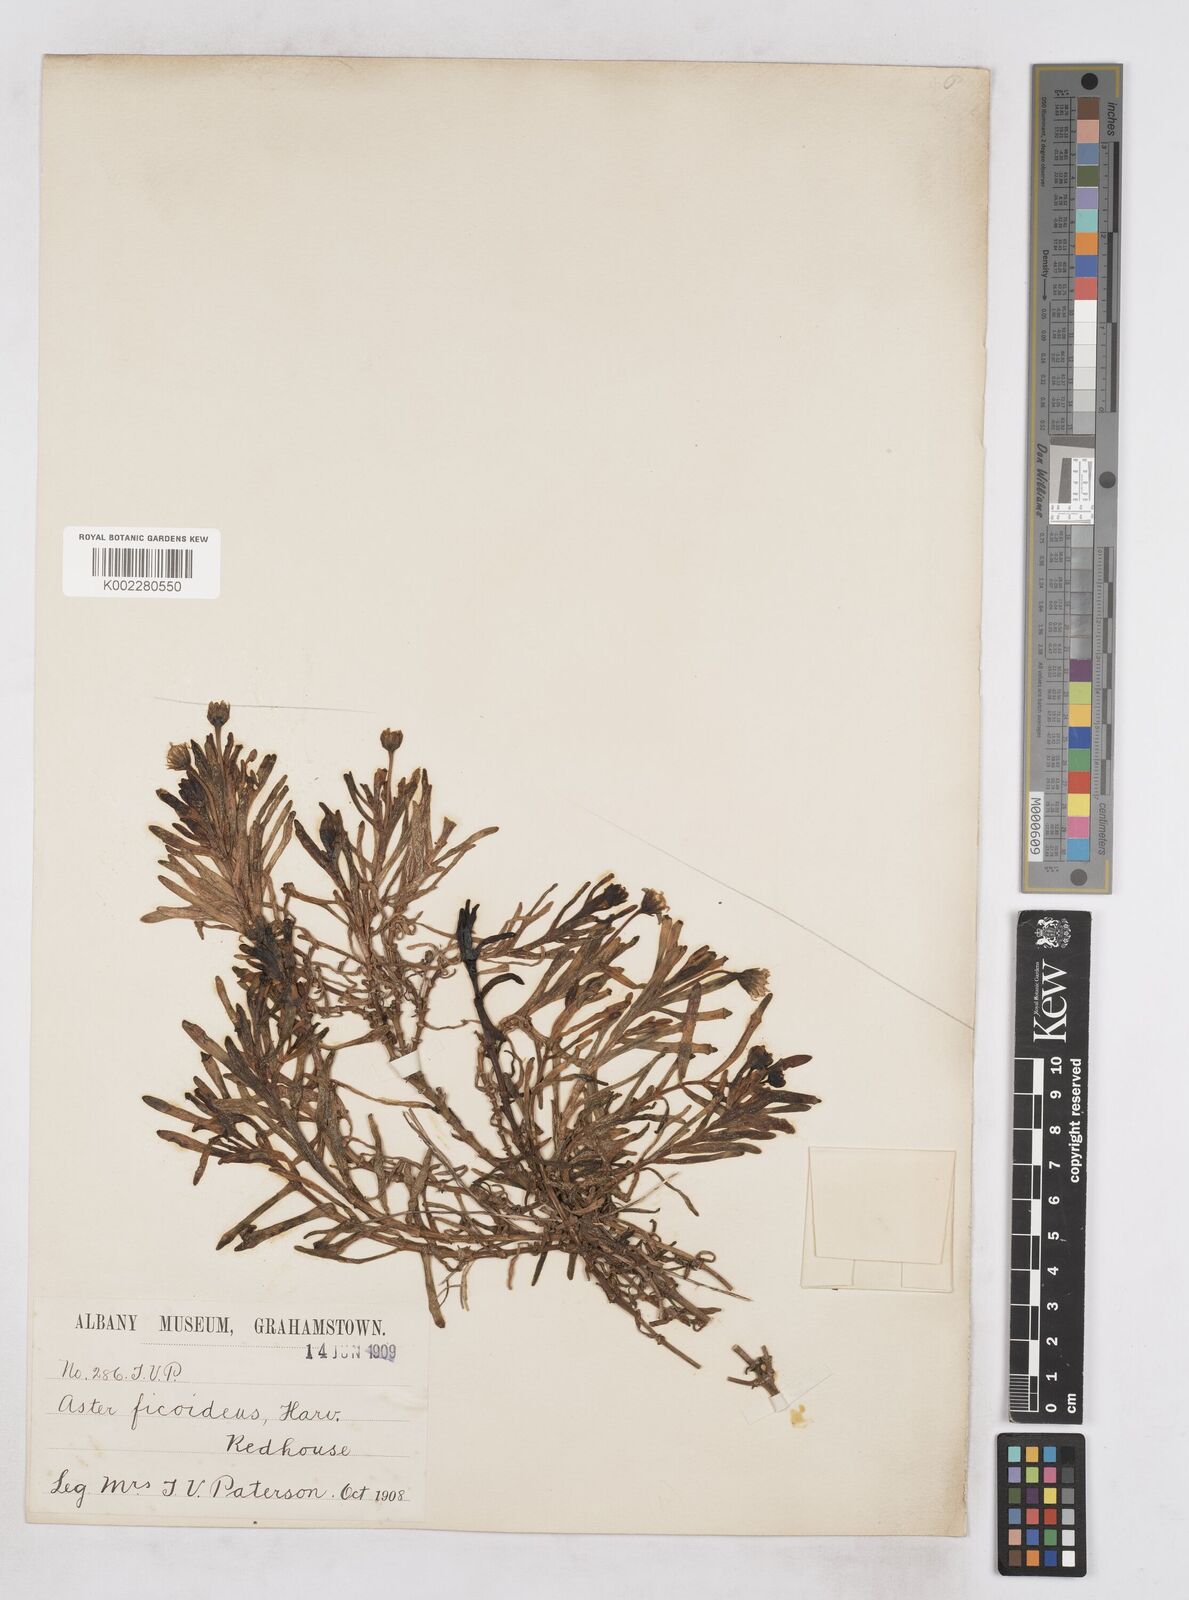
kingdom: Plantae
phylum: Tracheophyta
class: Magnoliopsida
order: Asterales
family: Asteraceae
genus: Poecilolepis
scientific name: Poecilolepis ficoidea
